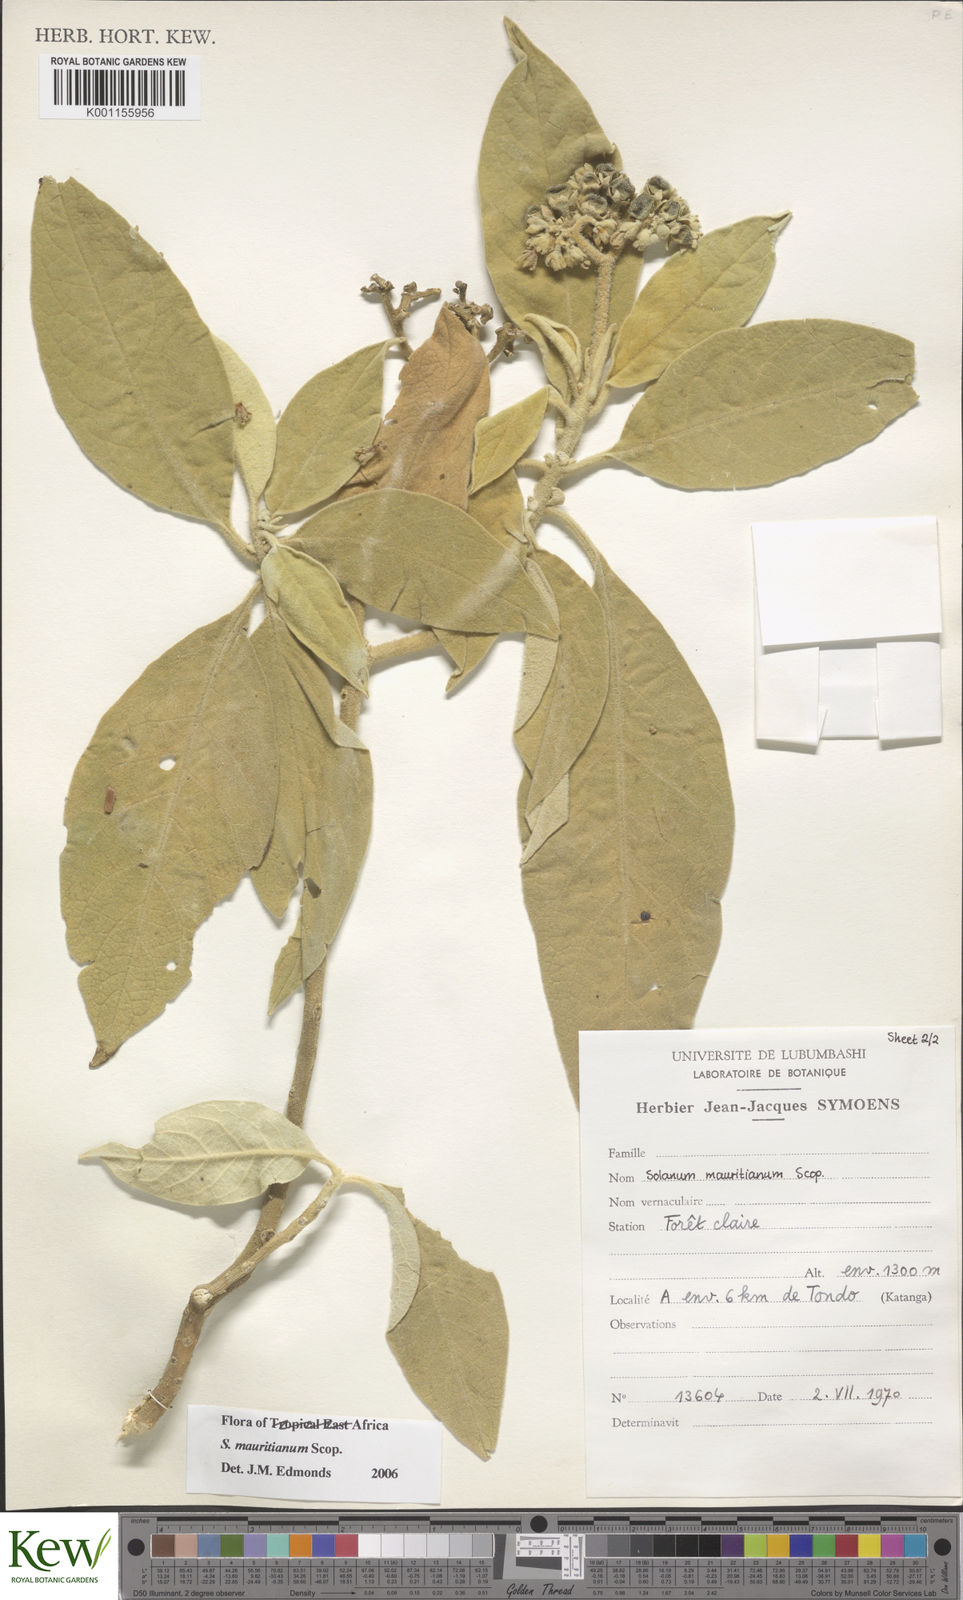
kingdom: Plantae
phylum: Tracheophyta
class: Magnoliopsida
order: Solanales
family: Solanaceae
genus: Solanum
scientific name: Solanum mauritianum
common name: Earleaf nightshade
